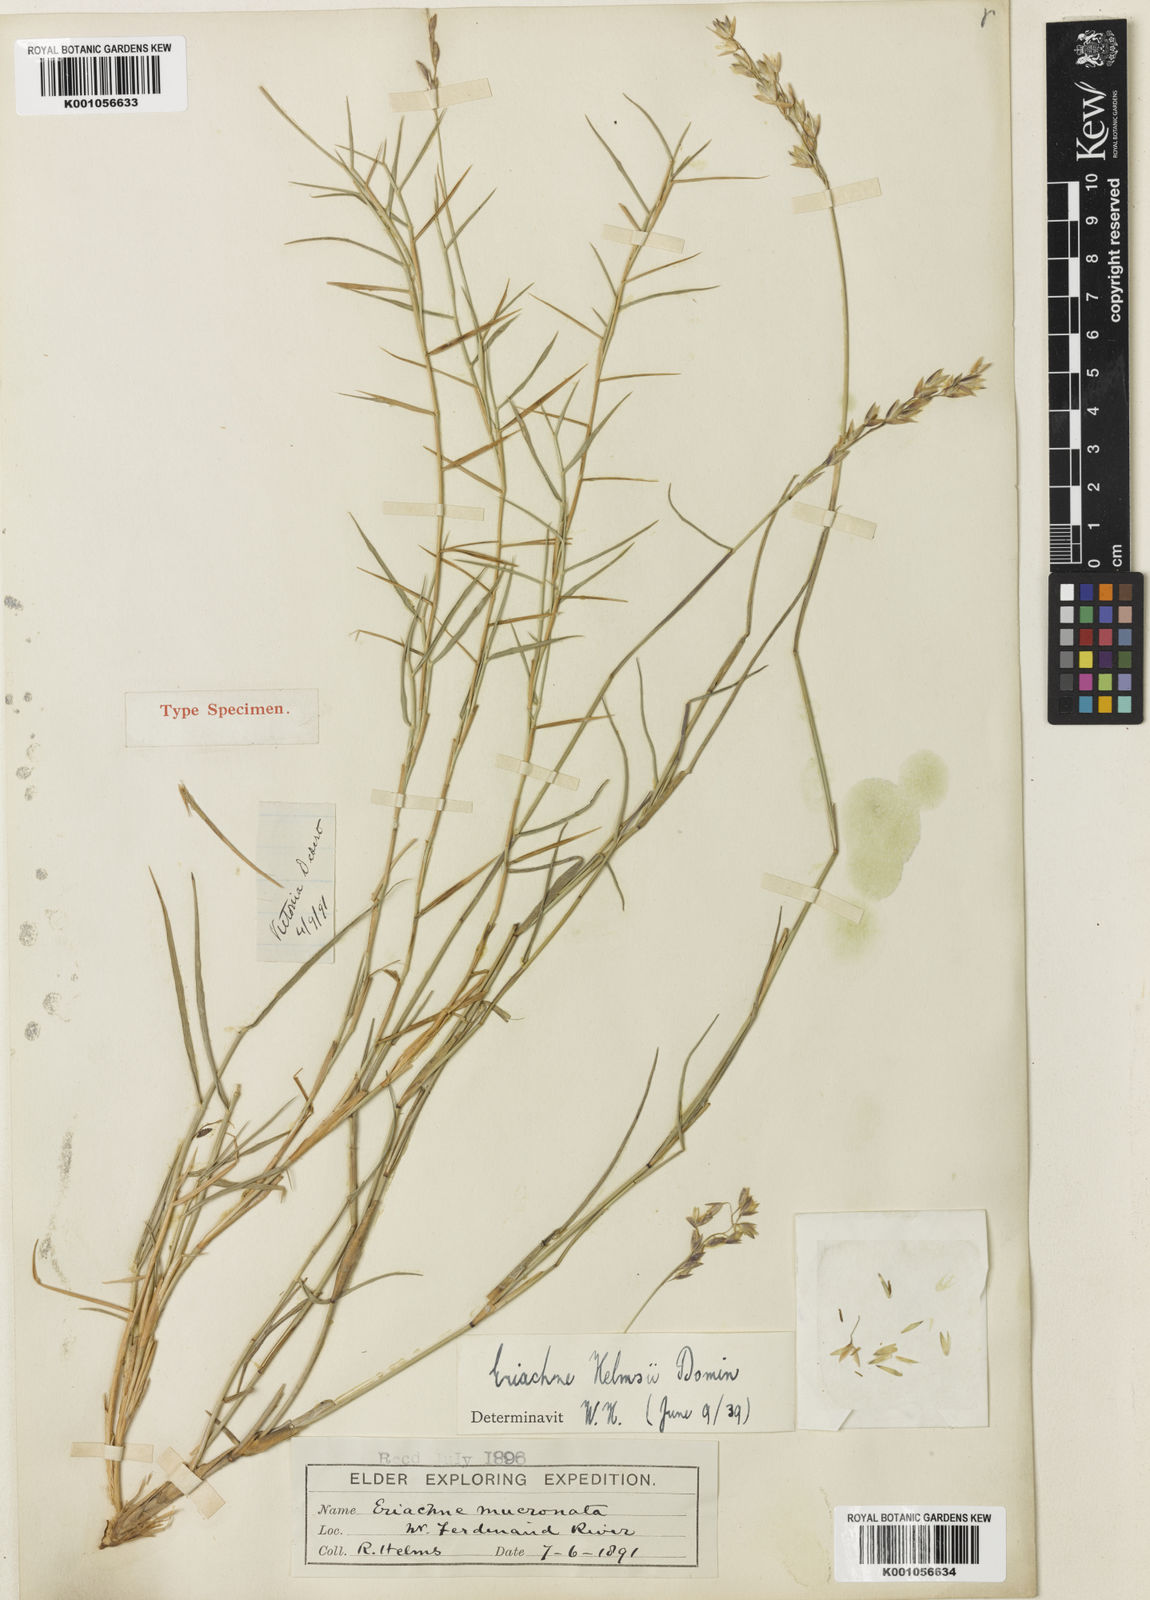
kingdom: Plantae
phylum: Tracheophyta
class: Liliopsida
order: Poales
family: Poaceae
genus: Eriachne
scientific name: Eriachne helmsii
